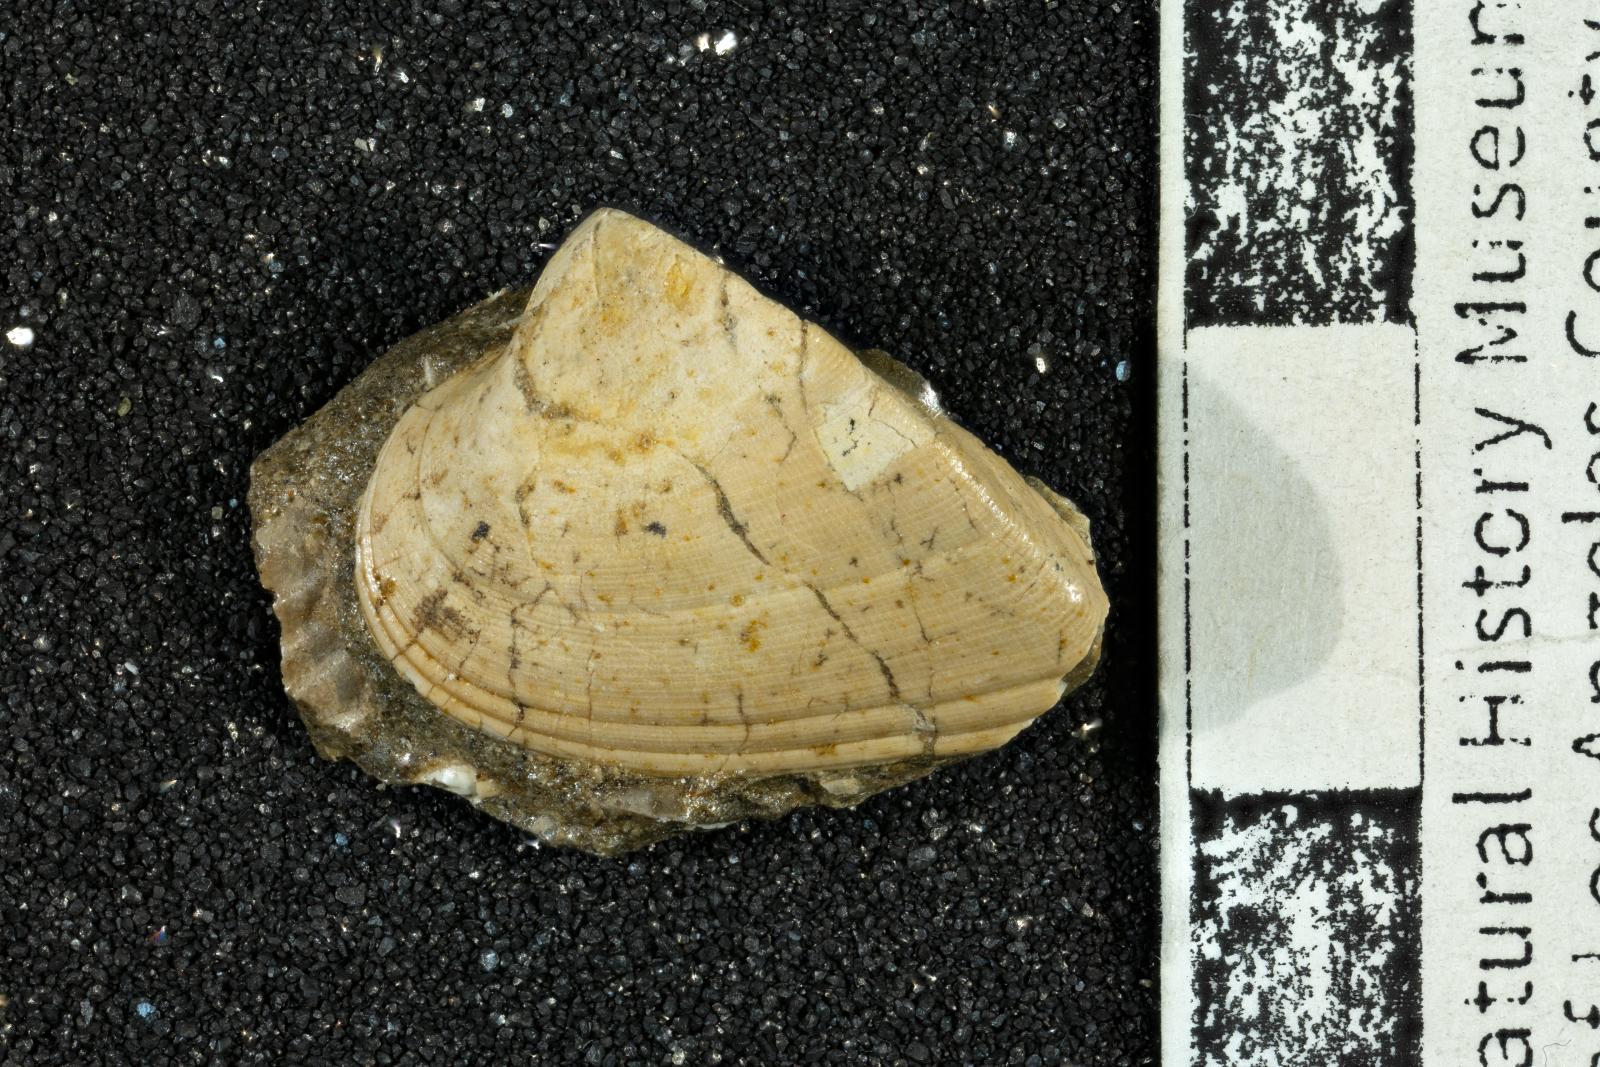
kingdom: Animalia
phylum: Mollusca
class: Bivalvia
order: Arcida
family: Noetiidae
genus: Trinacria
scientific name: Trinacria cor
